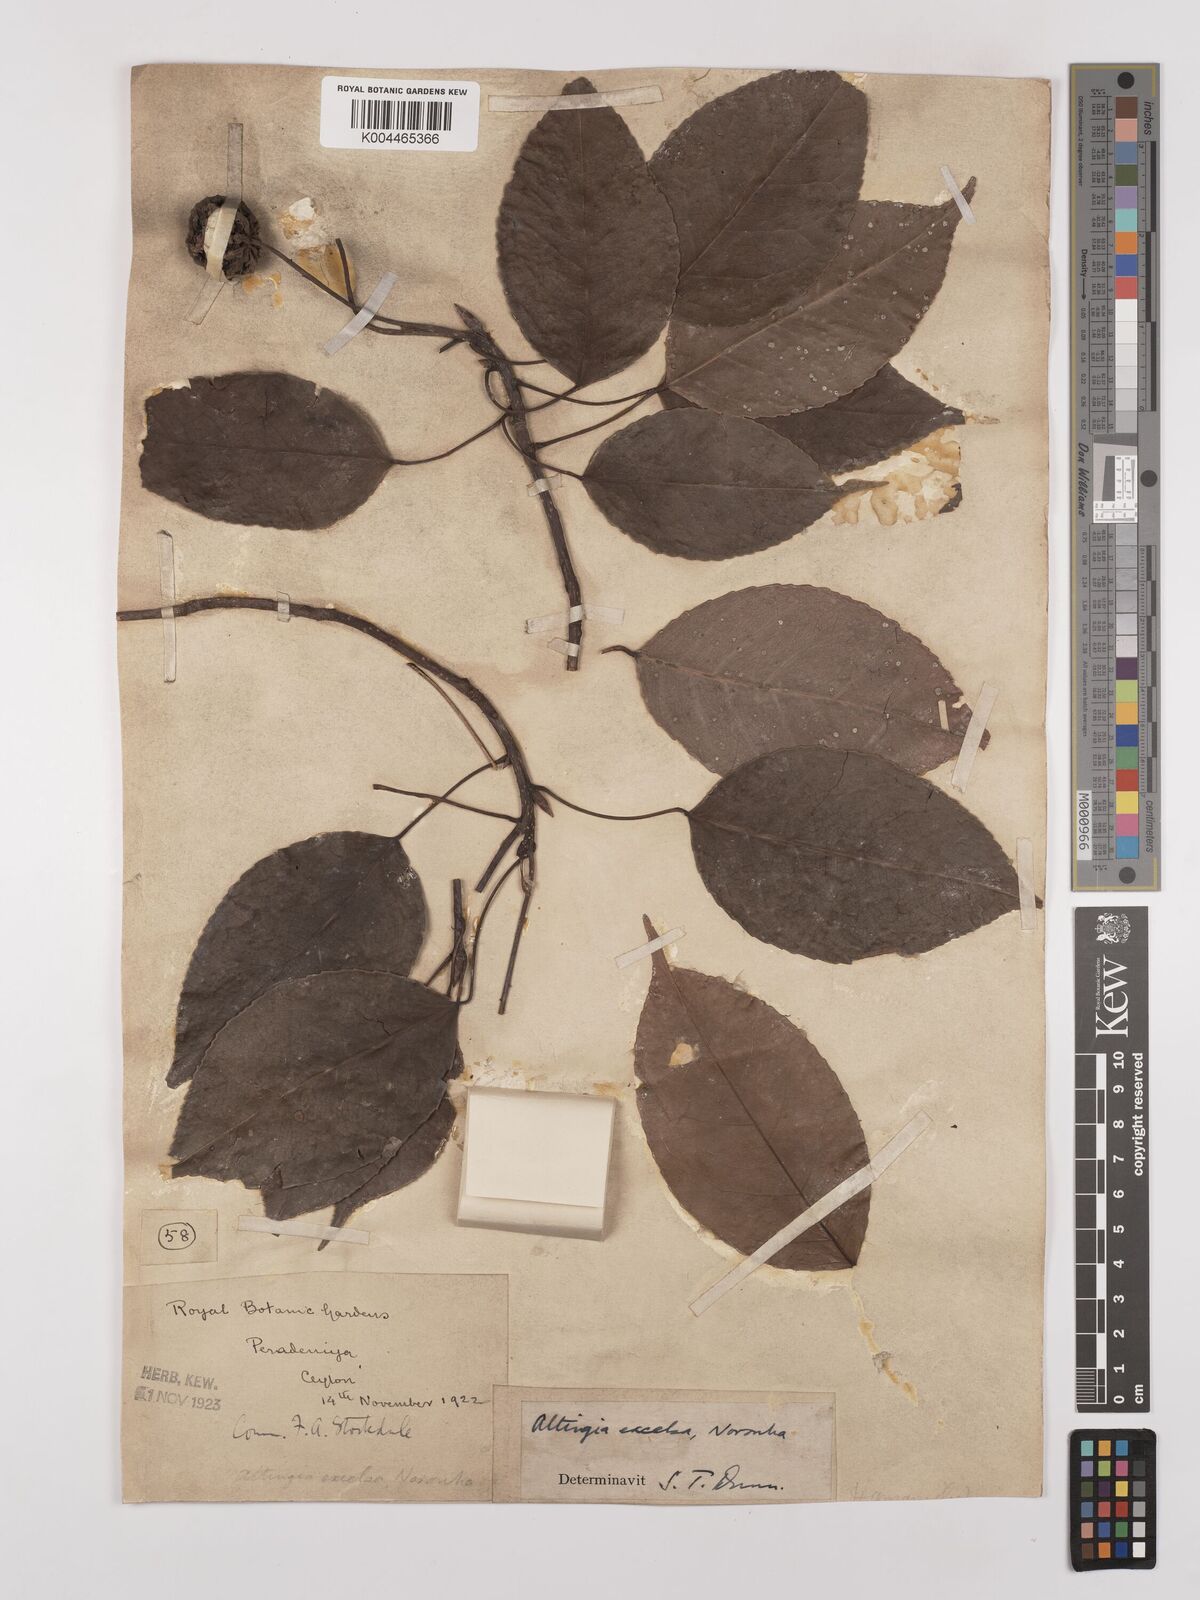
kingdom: Plantae
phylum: Tracheophyta
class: Magnoliopsida
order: Saxifragales
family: Altingiaceae
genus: Liquidambar
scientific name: Liquidambar excelsa
